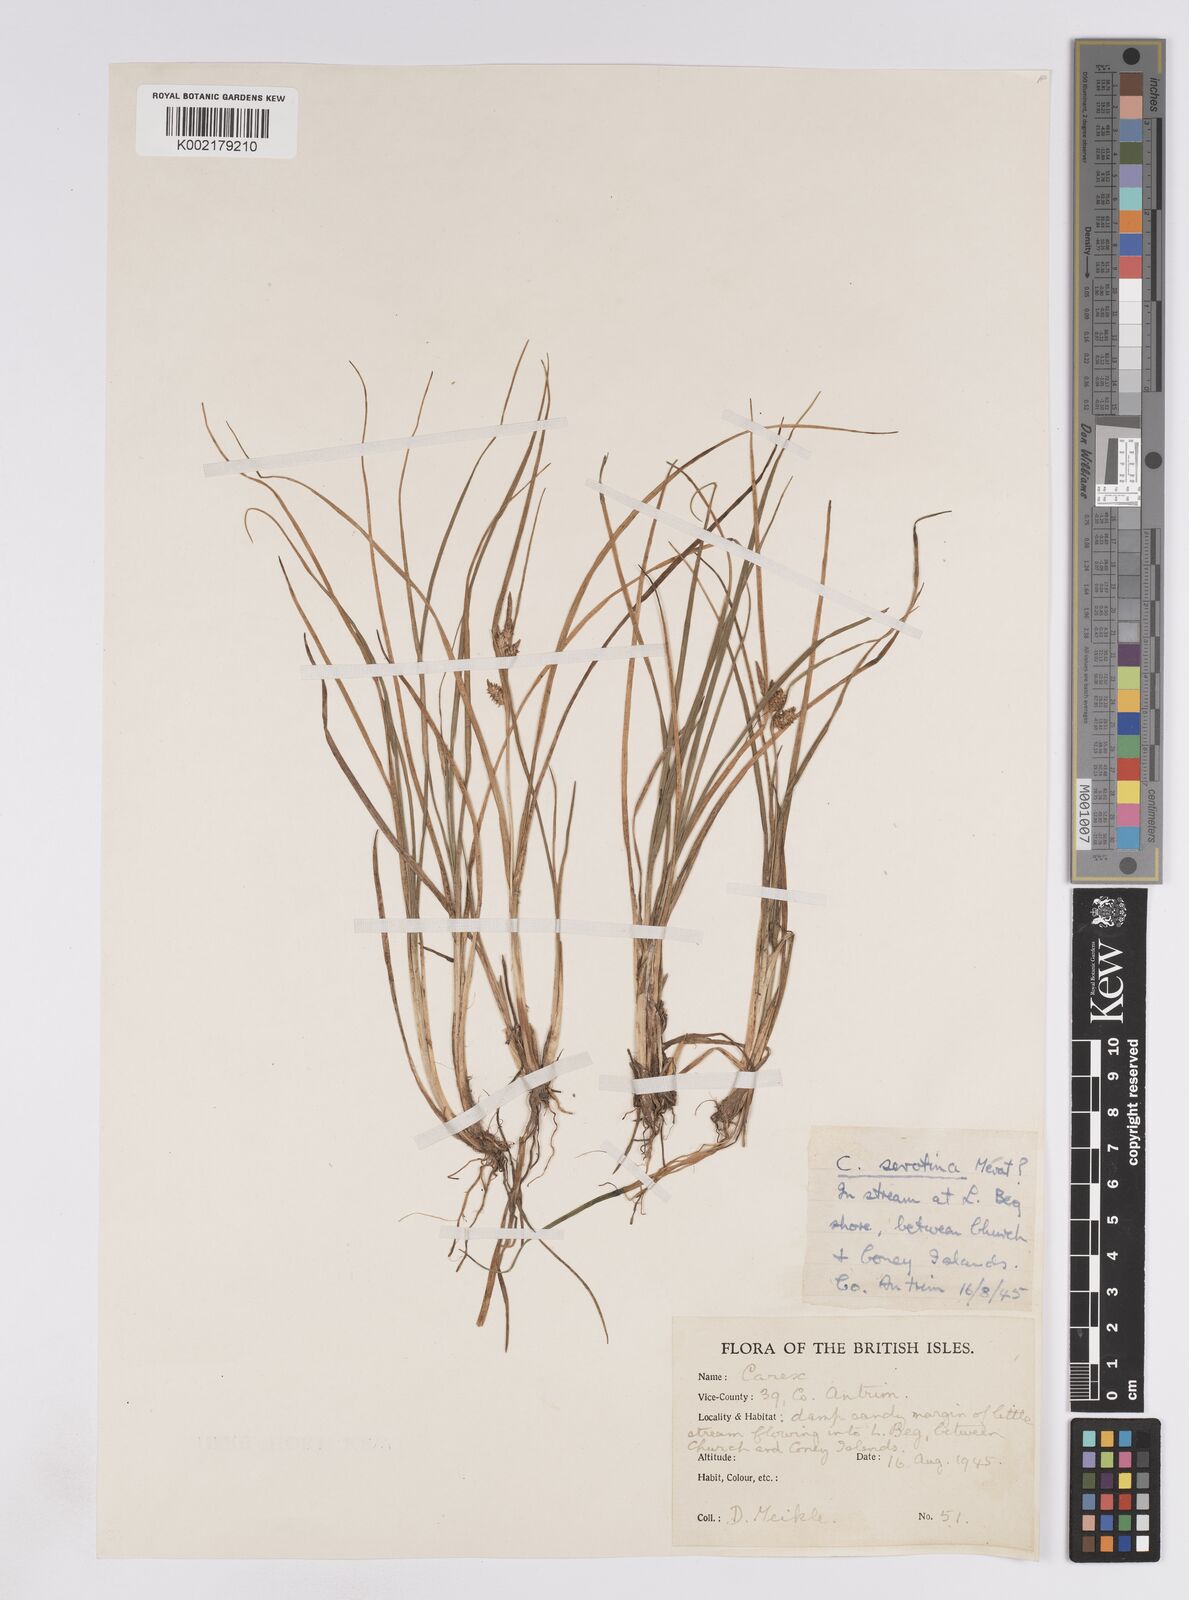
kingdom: Plantae
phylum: Tracheophyta
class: Liliopsida
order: Poales
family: Cyperaceae
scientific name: Cyperaceae
